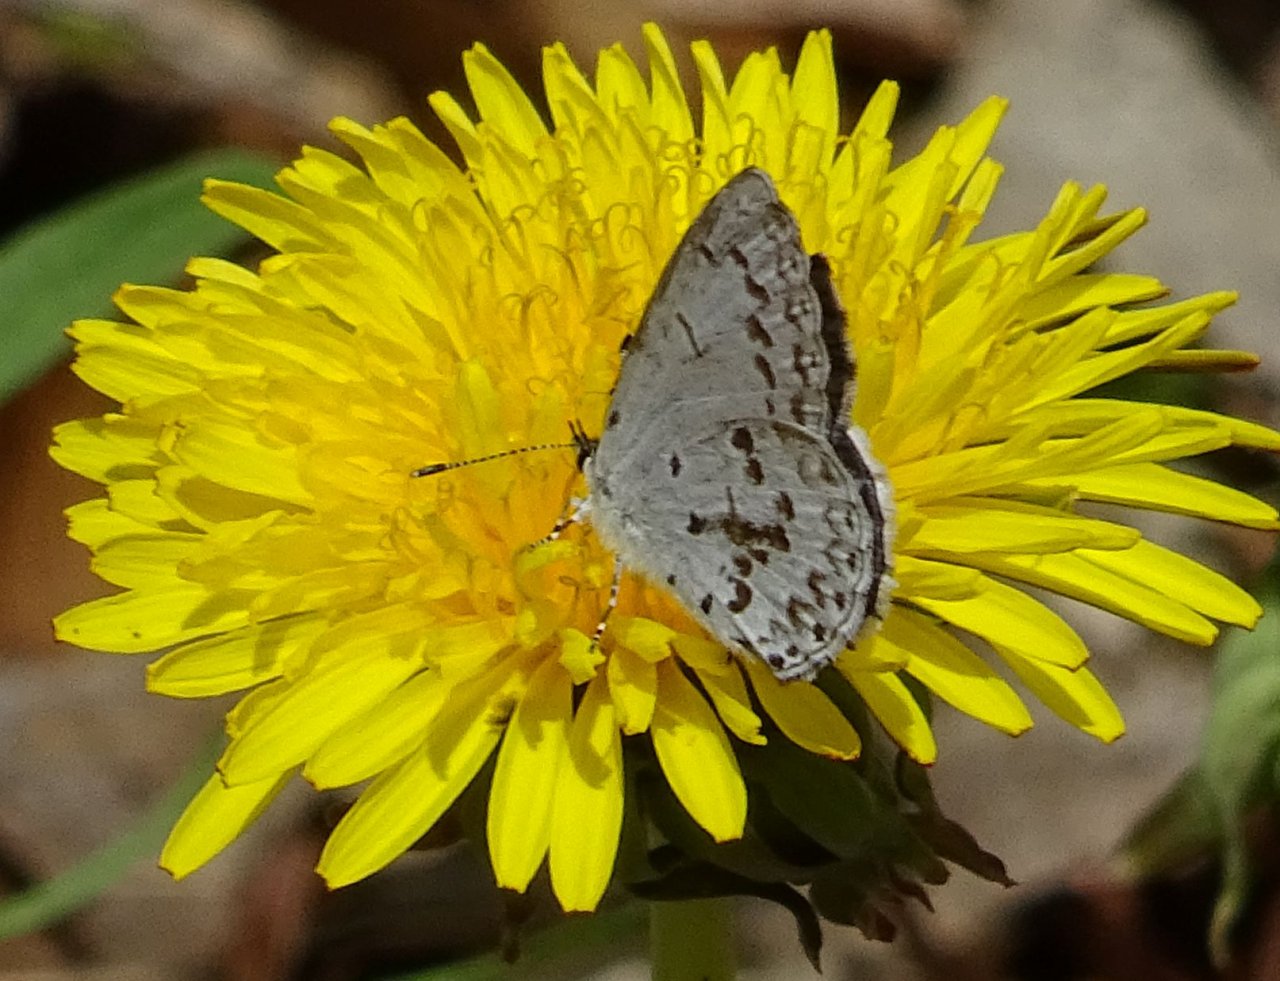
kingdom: Animalia
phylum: Arthropoda
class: Insecta
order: Lepidoptera
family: Lycaenidae
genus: Celastrina
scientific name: Celastrina
